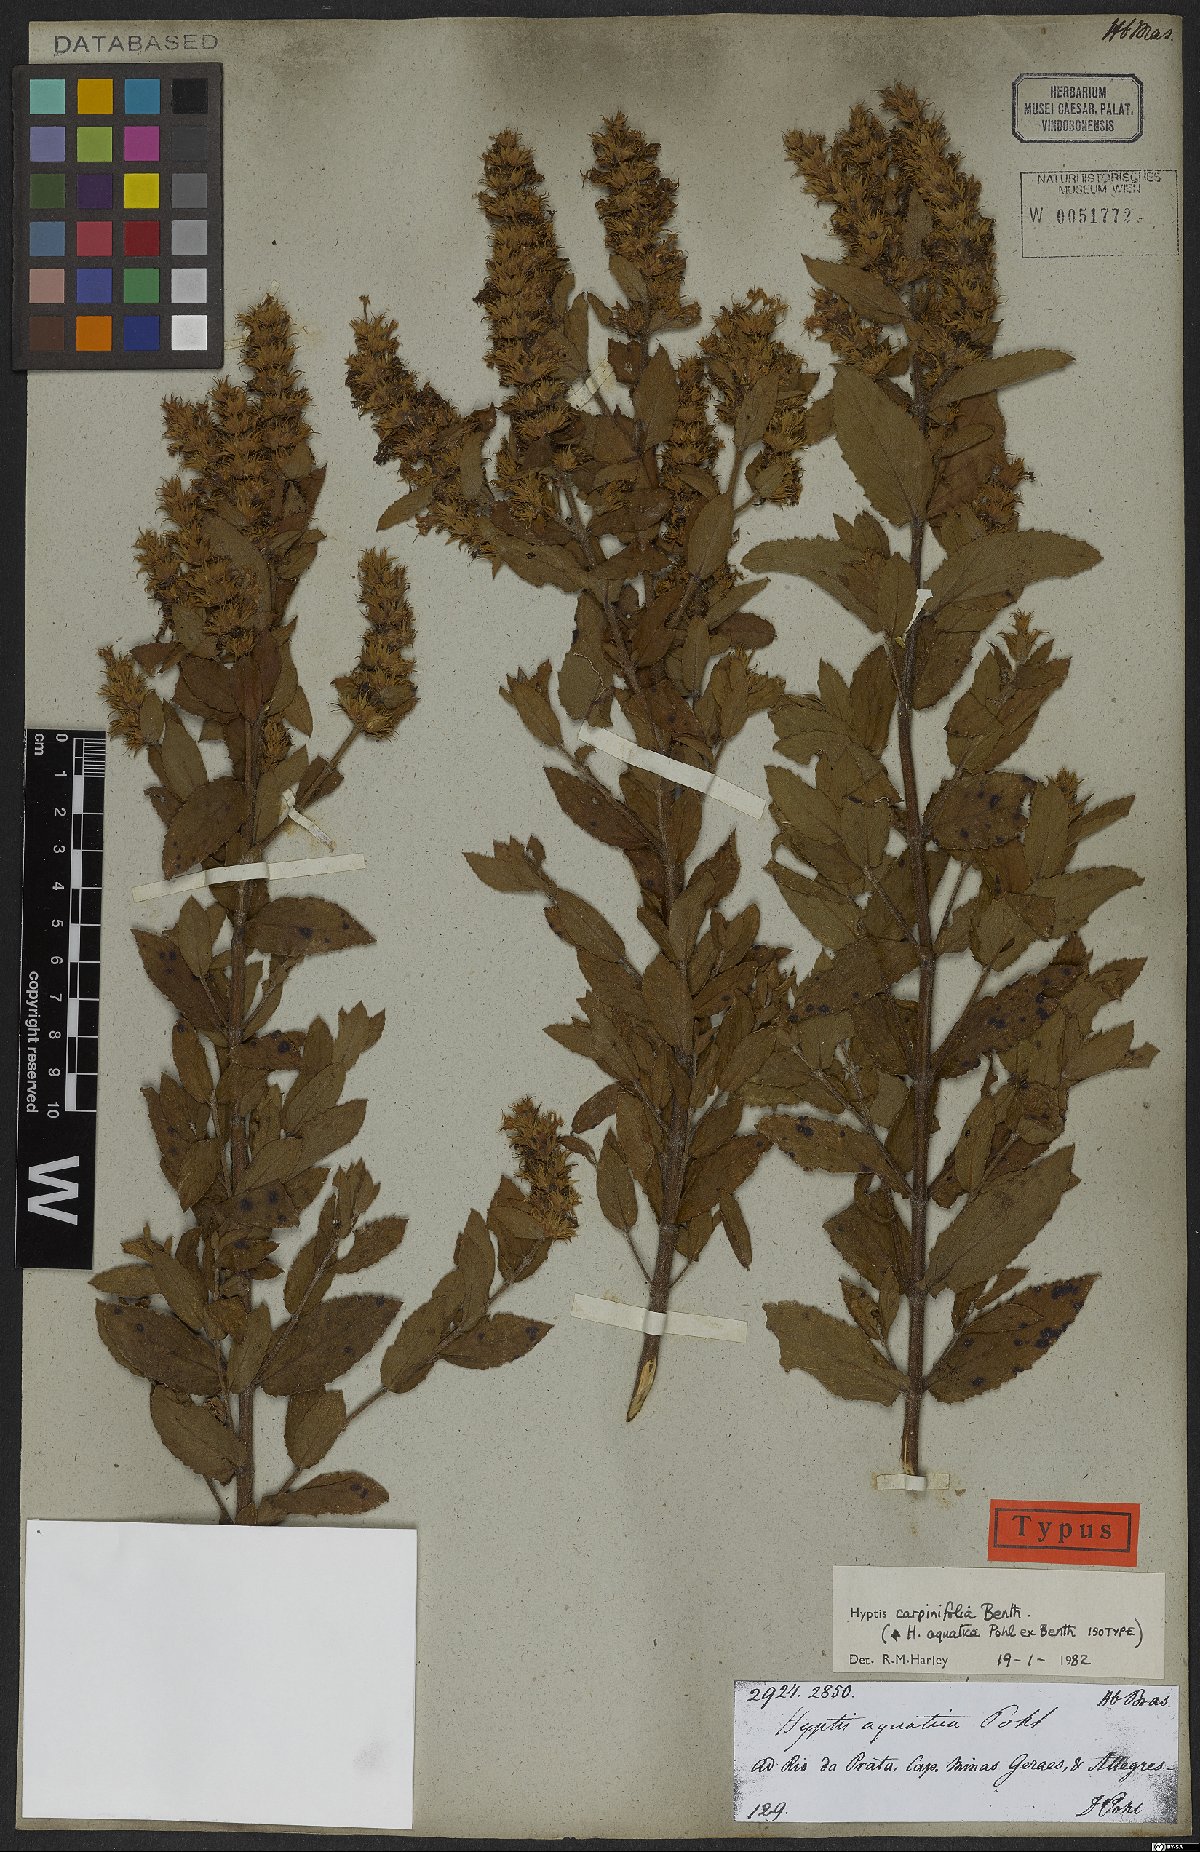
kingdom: Plantae
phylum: Tracheophyta
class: Magnoliopsida
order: Lamiales
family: Lamiaceae
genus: Cantinoa
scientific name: Cantinoa carpinifolia
